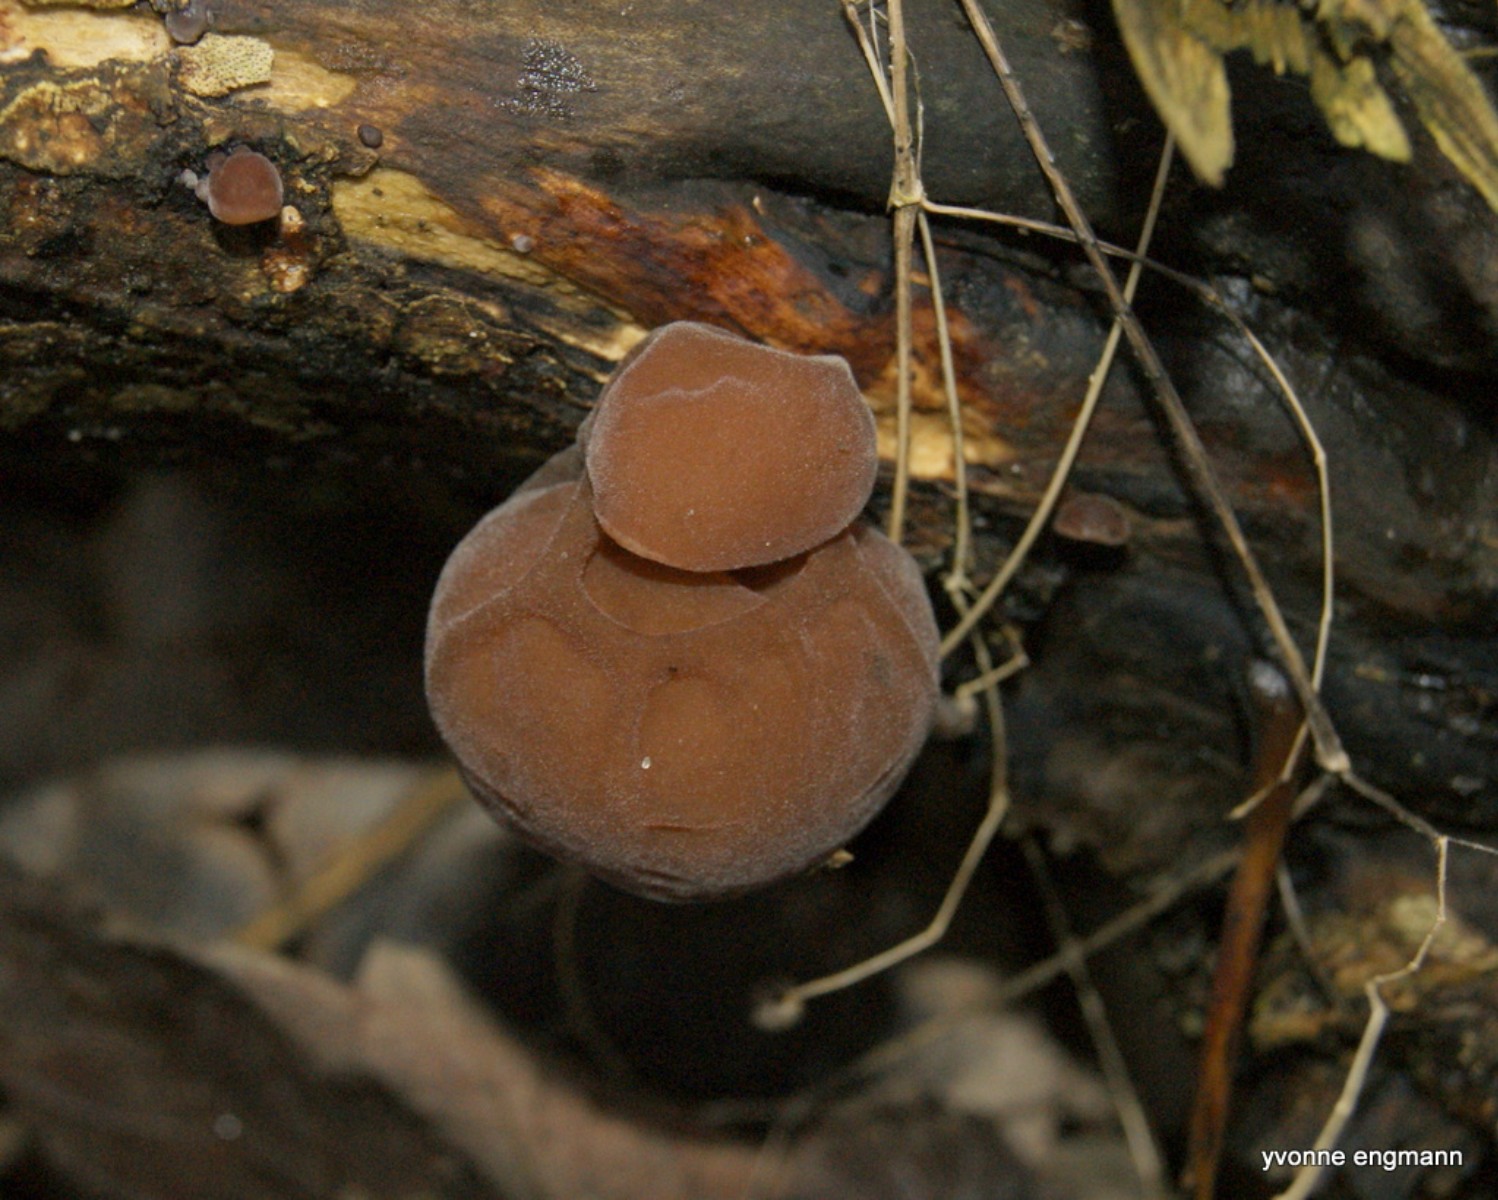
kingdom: Fungi
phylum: Basidiomycota
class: Agaricomycetes
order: Auriculariales
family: Auriculariaceae
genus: Auricularia
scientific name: Auricularia auricula-judae
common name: almindelig judasøre
